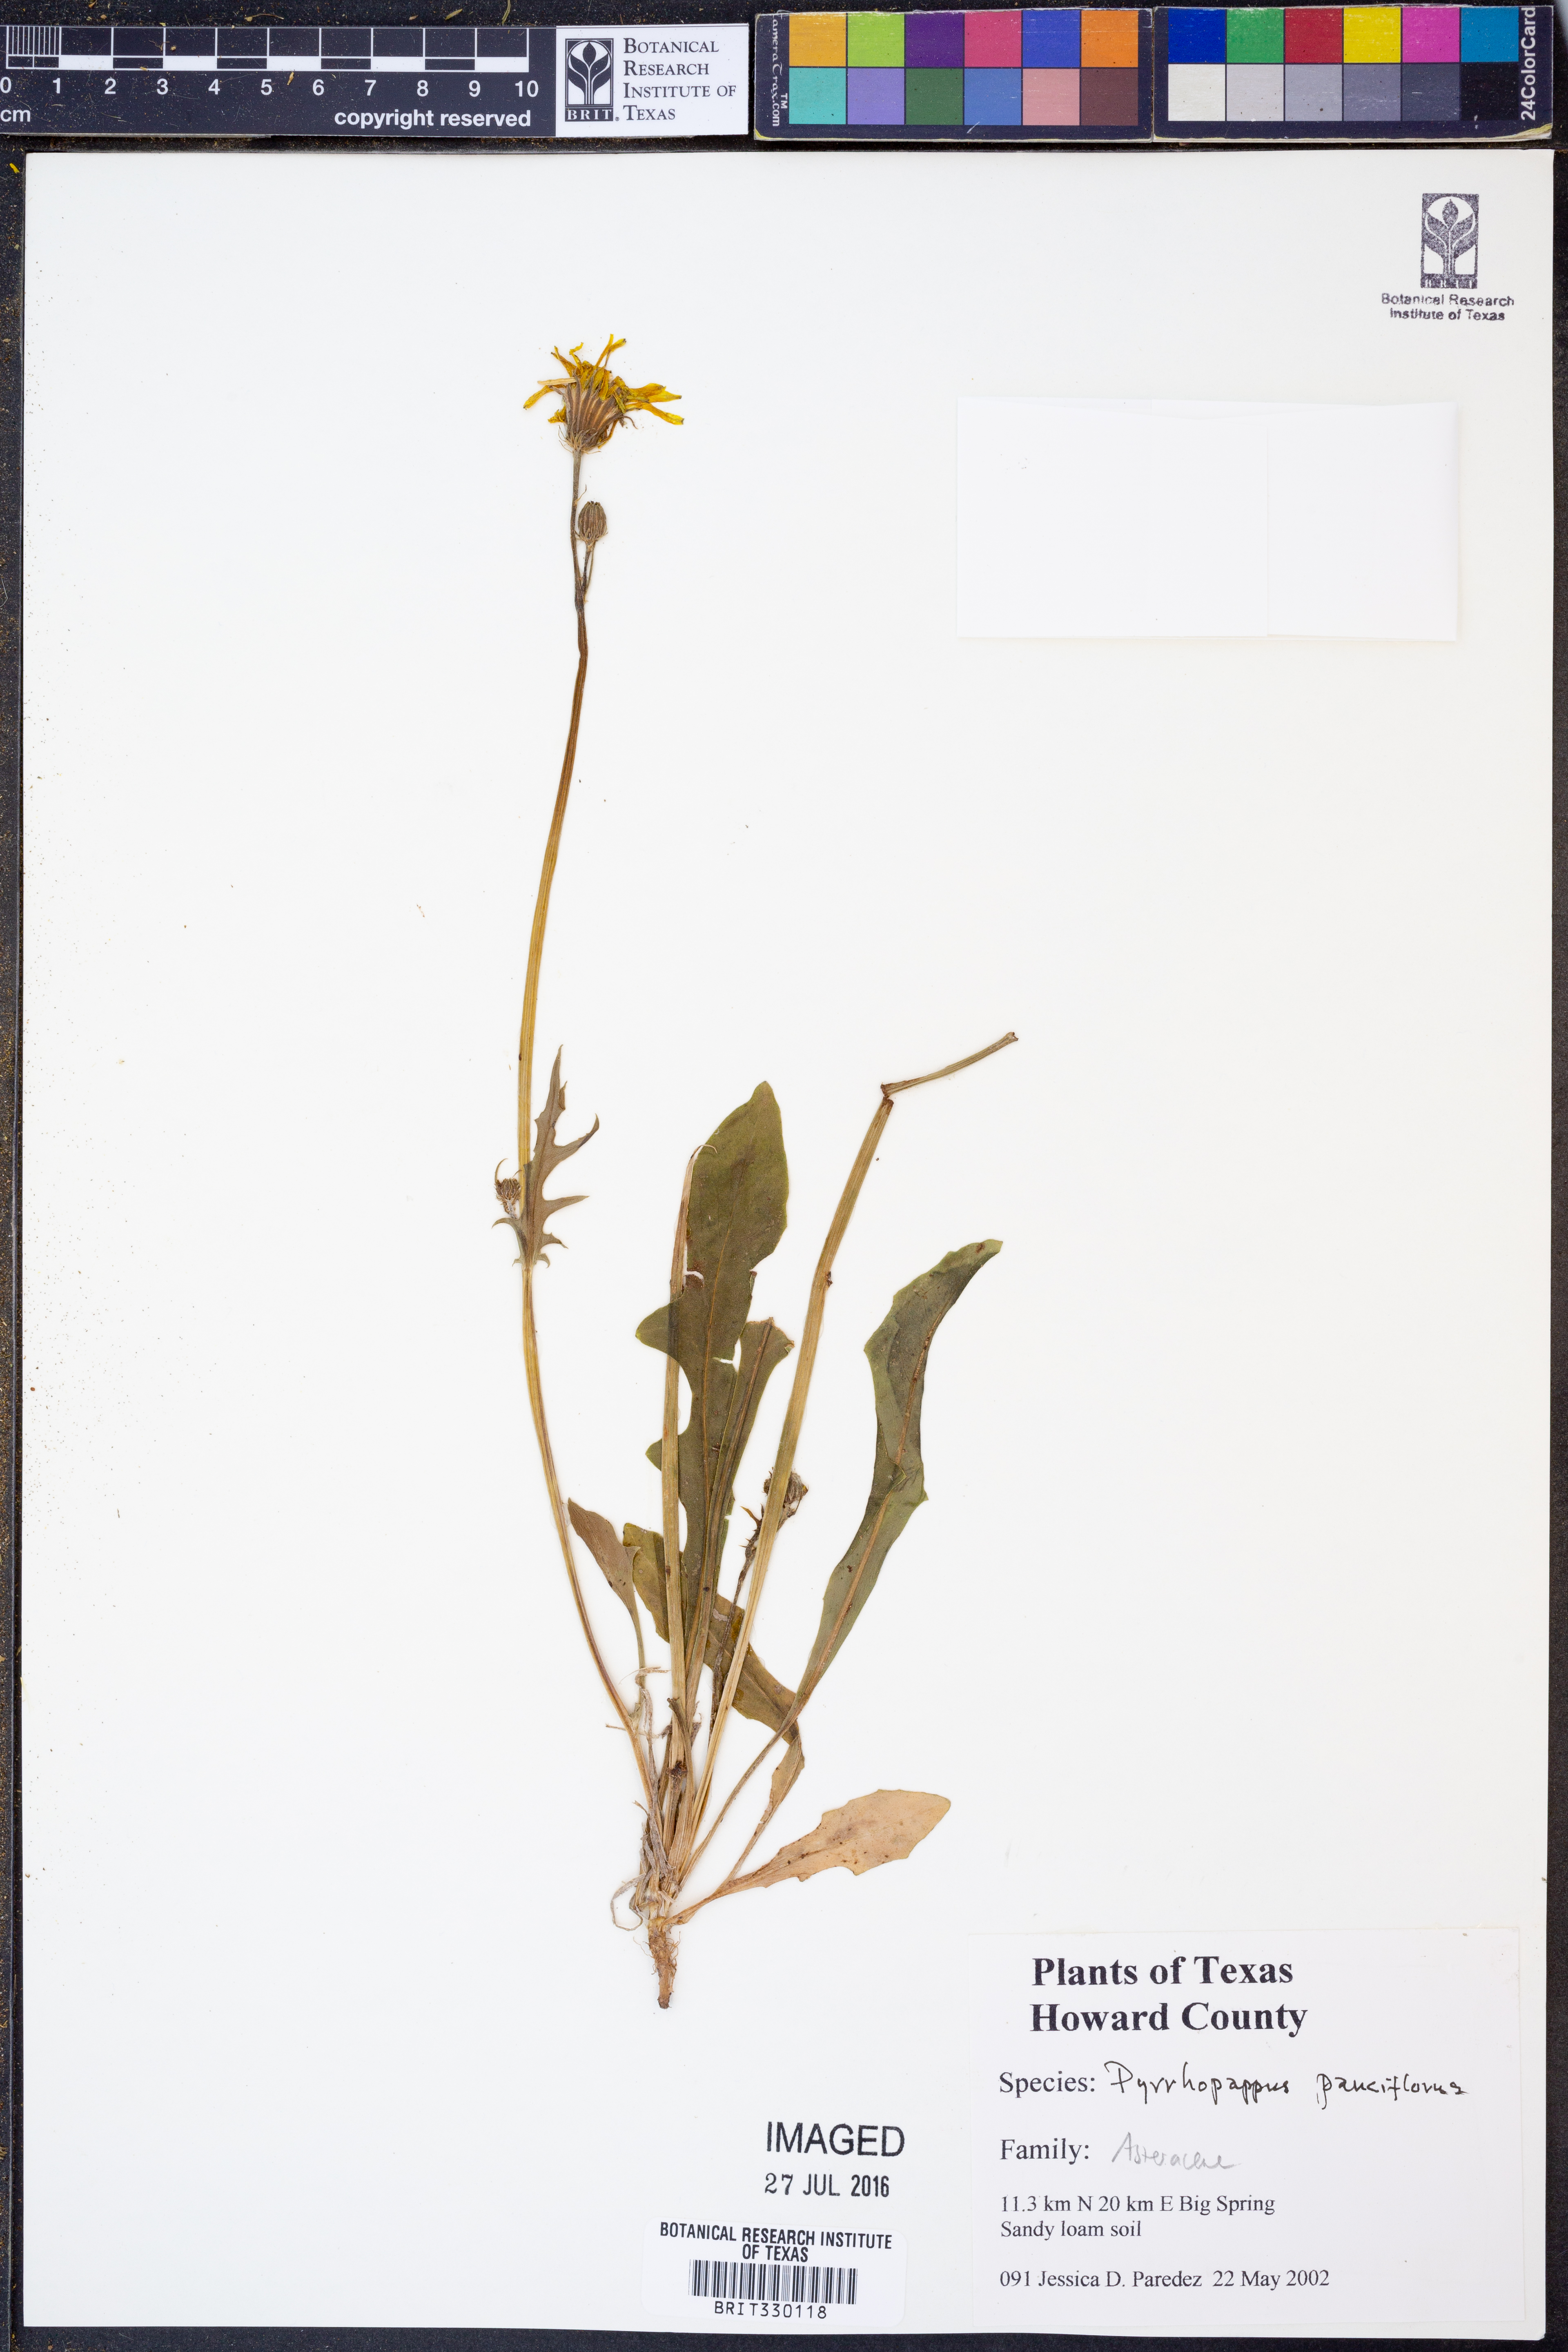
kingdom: Plantae
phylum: Tracheophyta
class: Magnoliopsida
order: Asterales
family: Asteraceae
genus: Pyrrhopappus
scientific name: Pyrrhopappus pauciflorus
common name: Texas false dandelion
